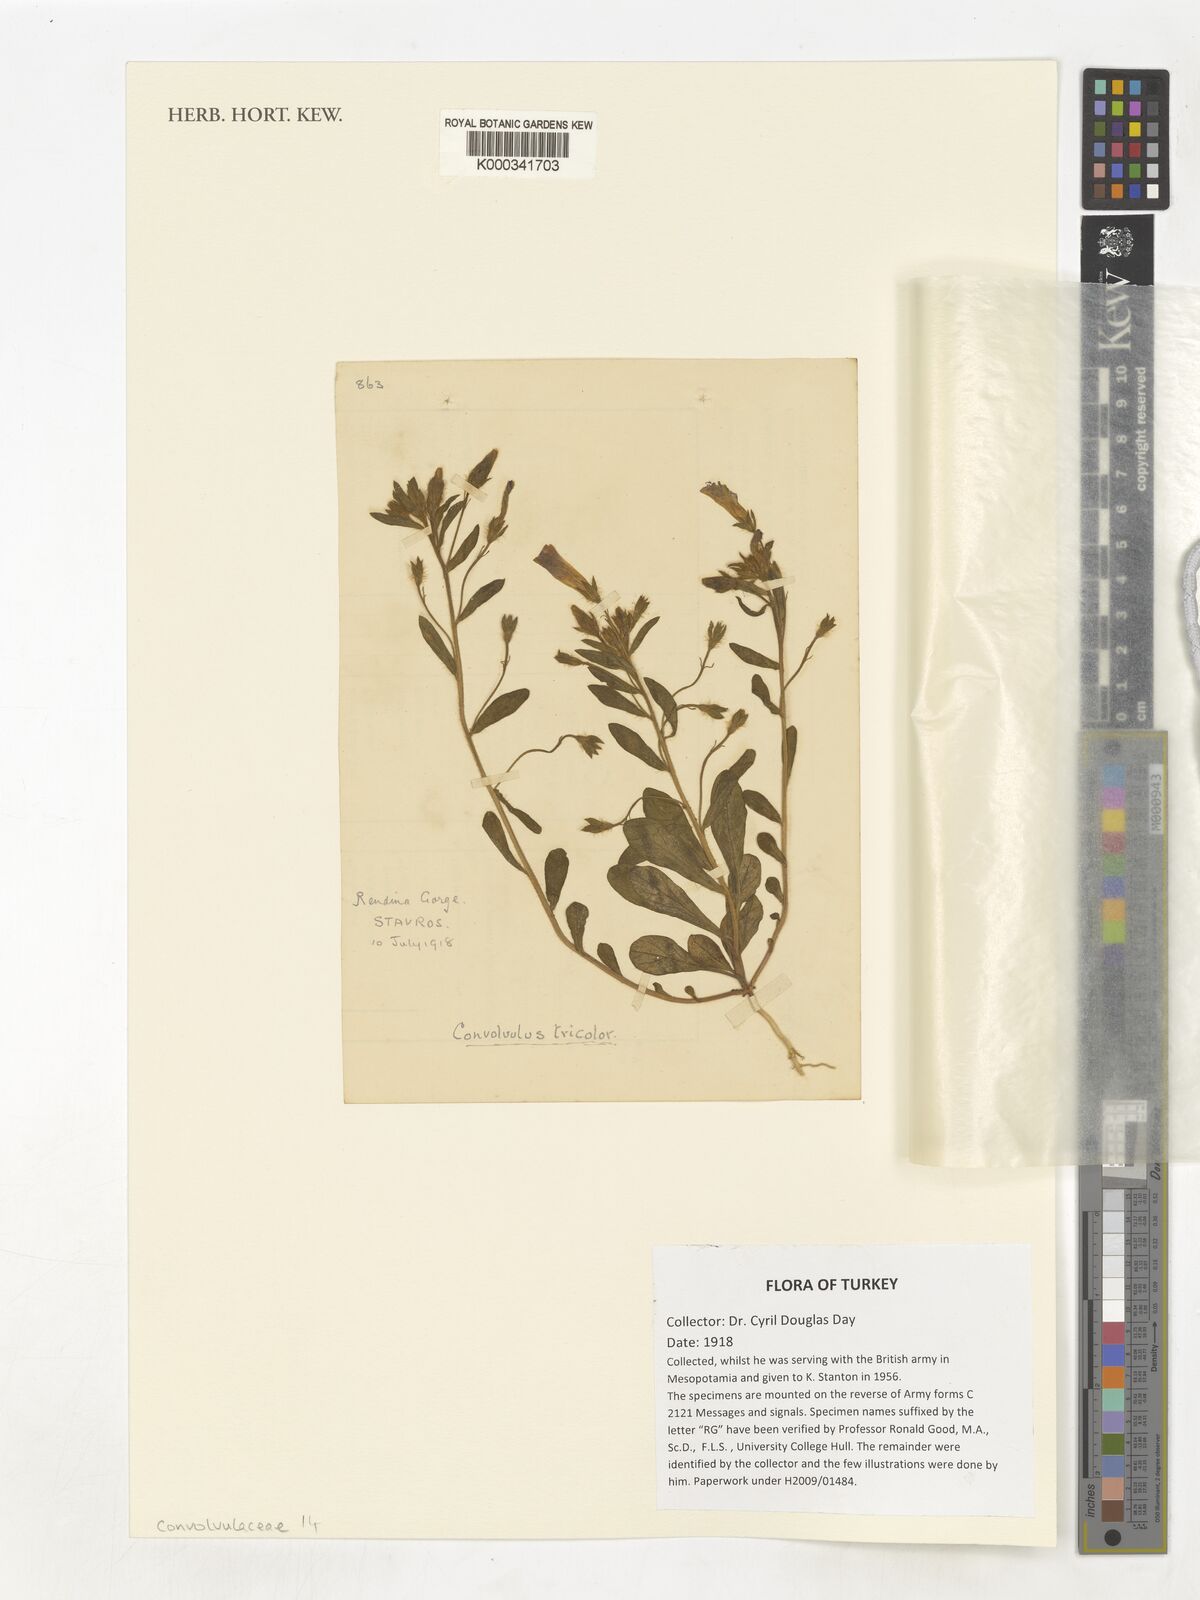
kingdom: Plantae
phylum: Tracheophyta
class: Magnoliopsida
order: Solanales
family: Convolvulaceae
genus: Convolvulus
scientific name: Convolvulus tricolor
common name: Dwarf morning-glory
